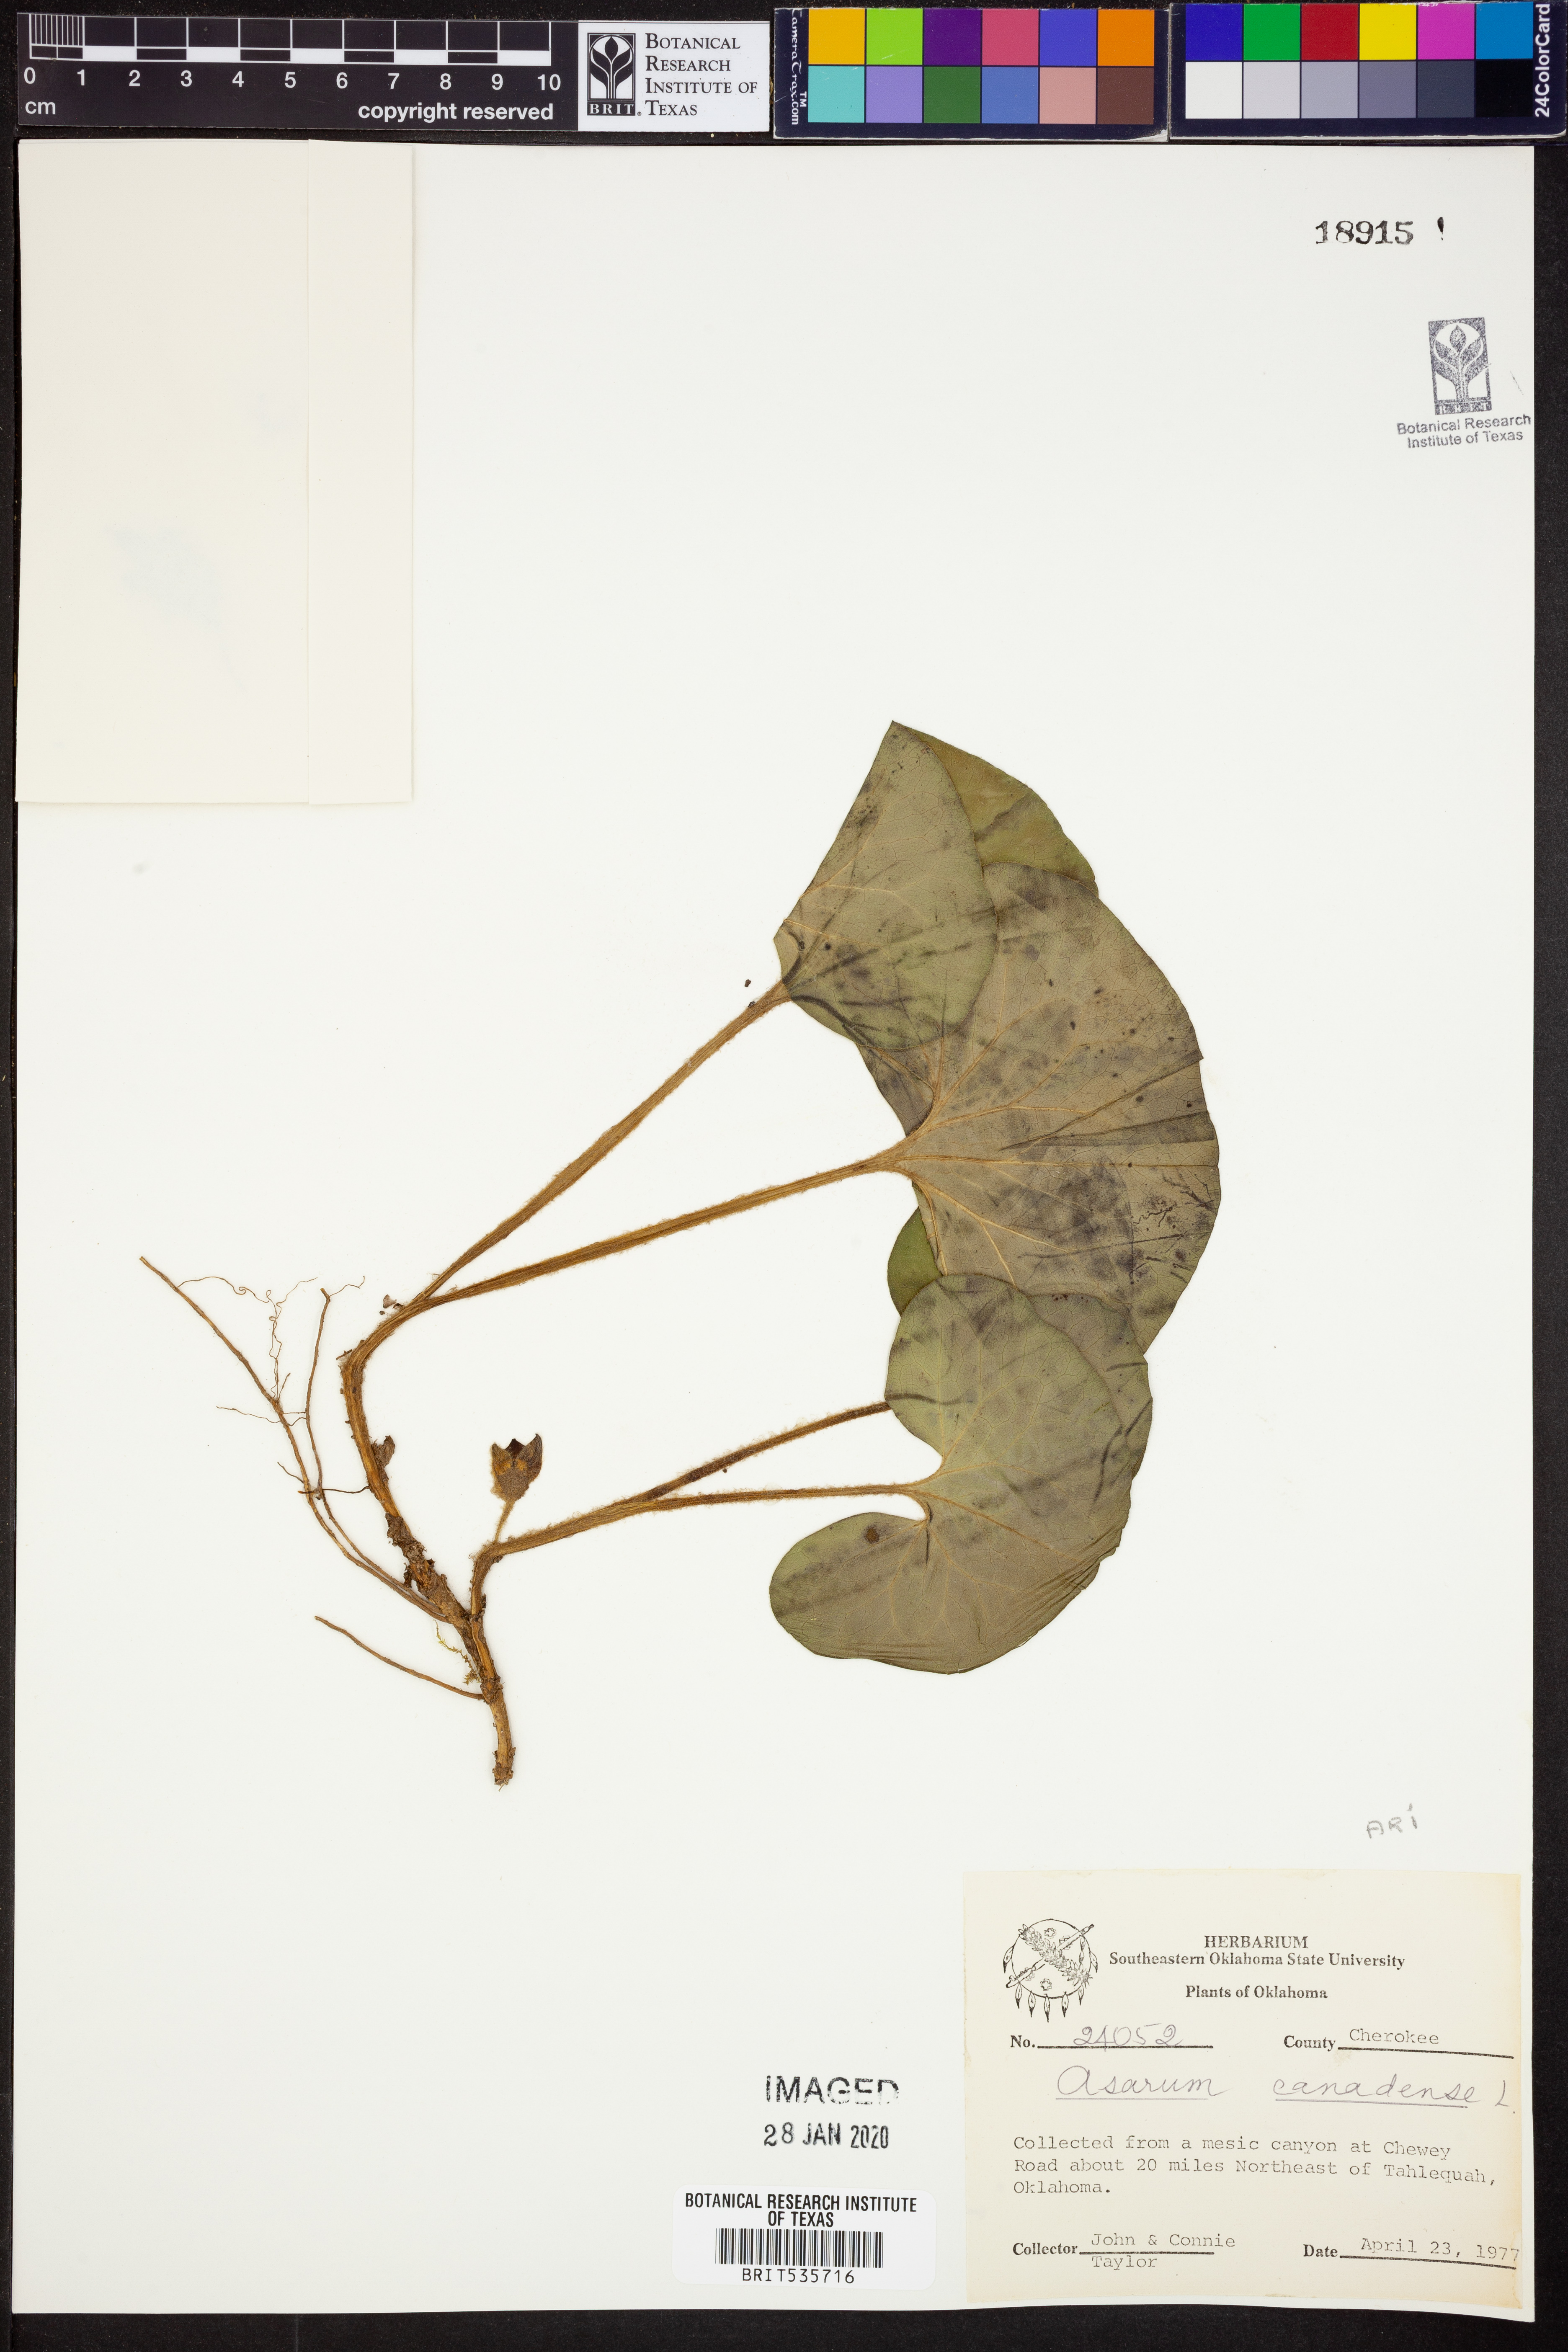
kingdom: Plantae
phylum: Tracheophyta
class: Magnoliopsida
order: Piperales
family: Aristolochiaceae
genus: Asarum
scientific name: Asarum canadense
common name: Wild ginger
